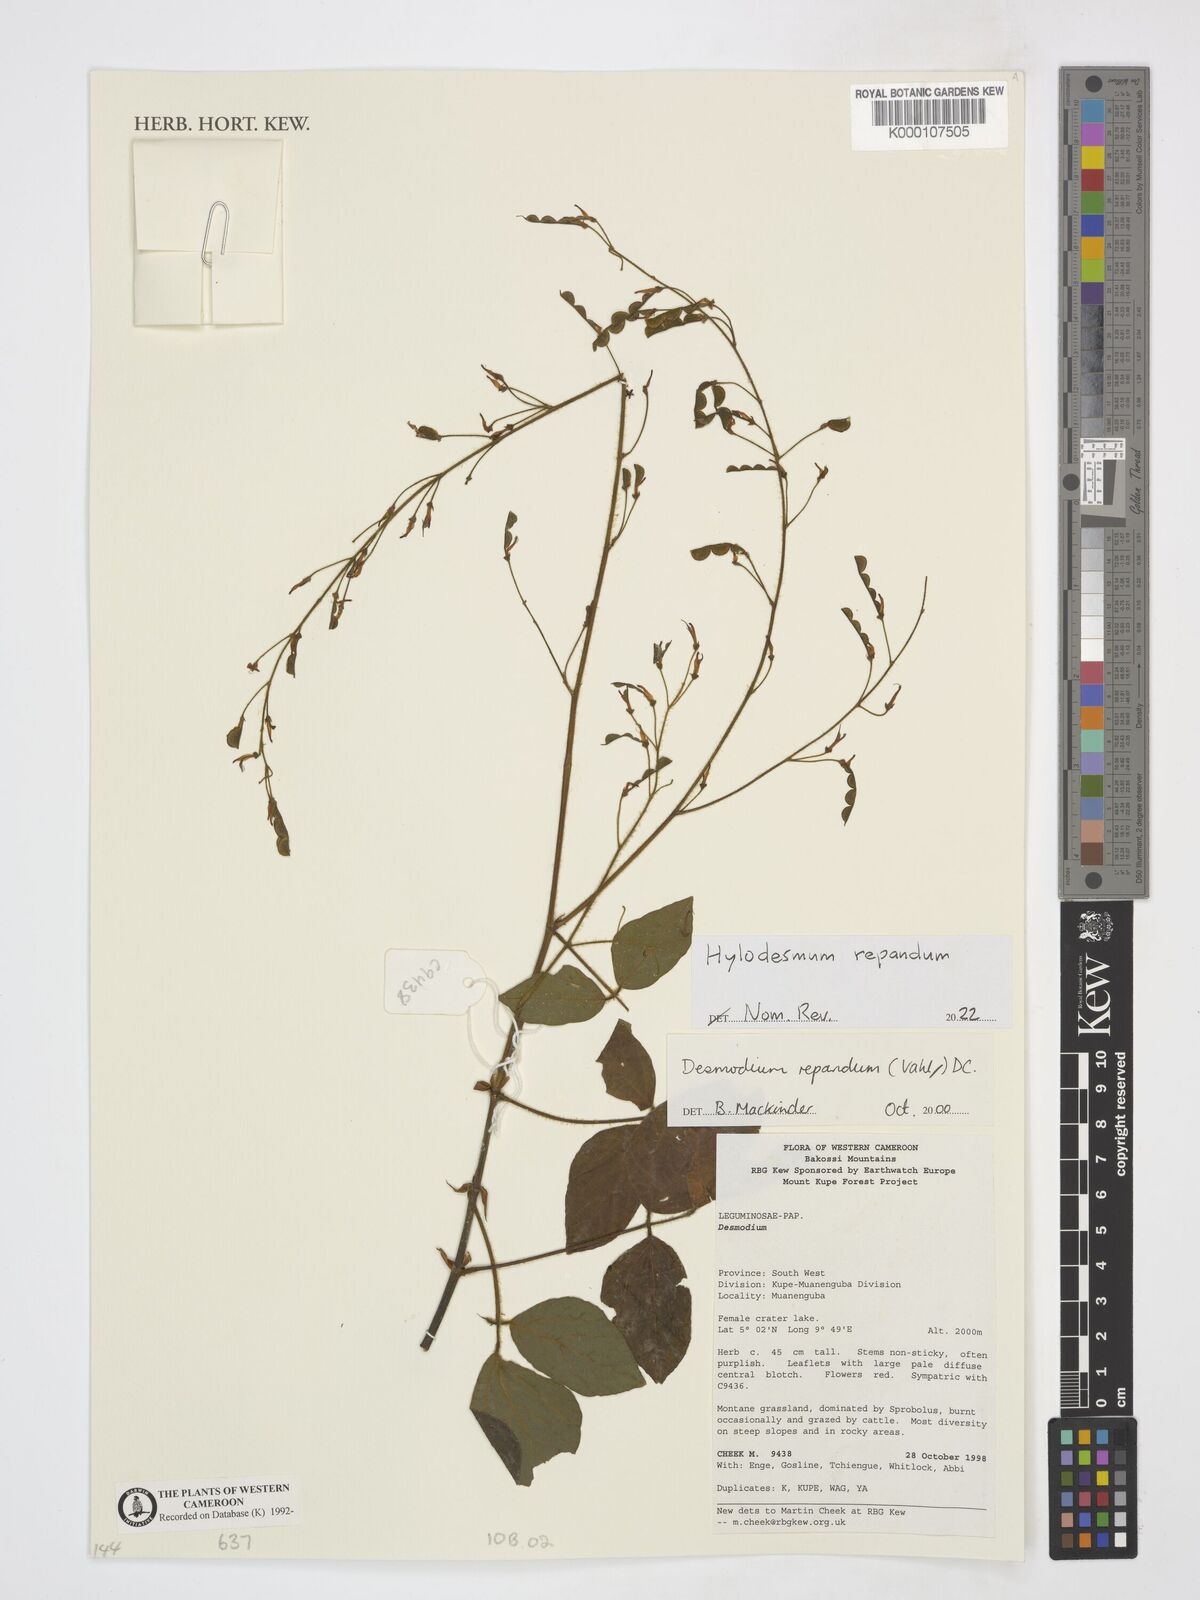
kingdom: Plantae
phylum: Tracheophyta
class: Magnoliopsida
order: Fabales
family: Fabaceae
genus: Desmodium
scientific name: Desmodium
